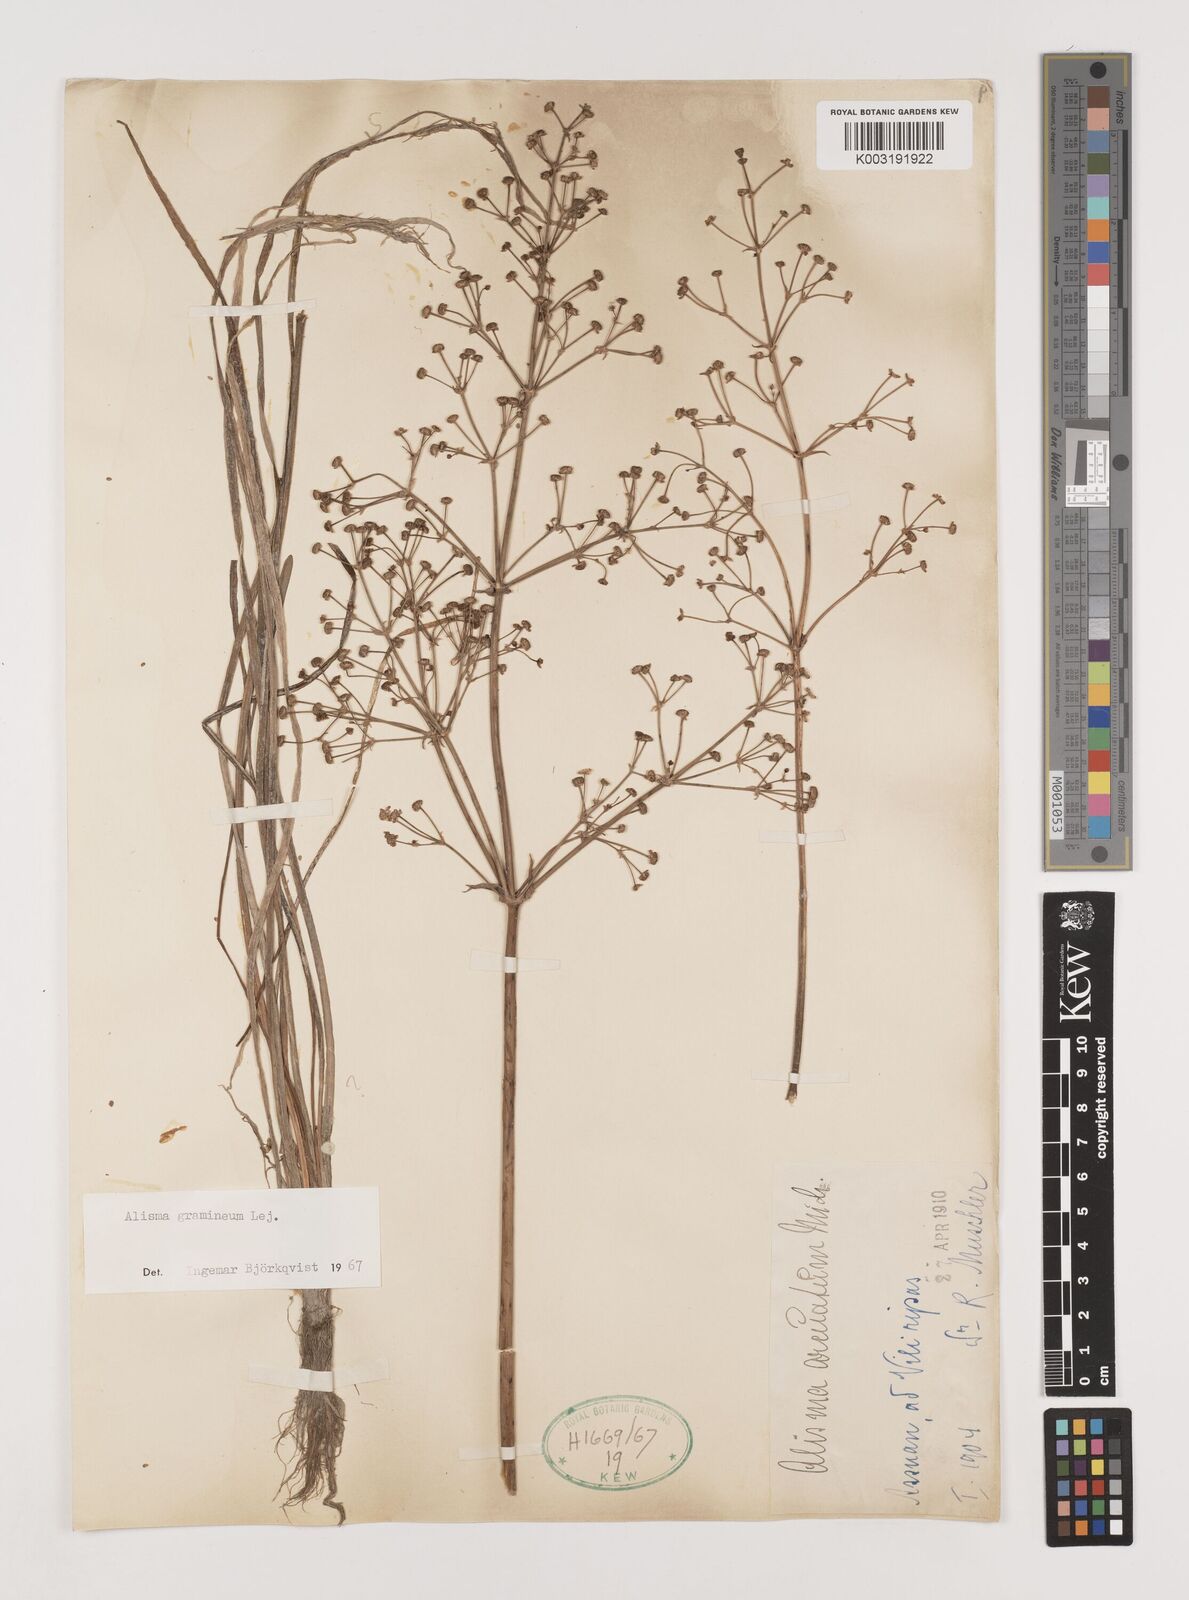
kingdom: Plantae
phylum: Tracheophyta
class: Liliopsida
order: Alismatales
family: Alismataceae
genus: Alisma
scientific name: Alisma gramineum
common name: Ribbon-leaved water-plantain
